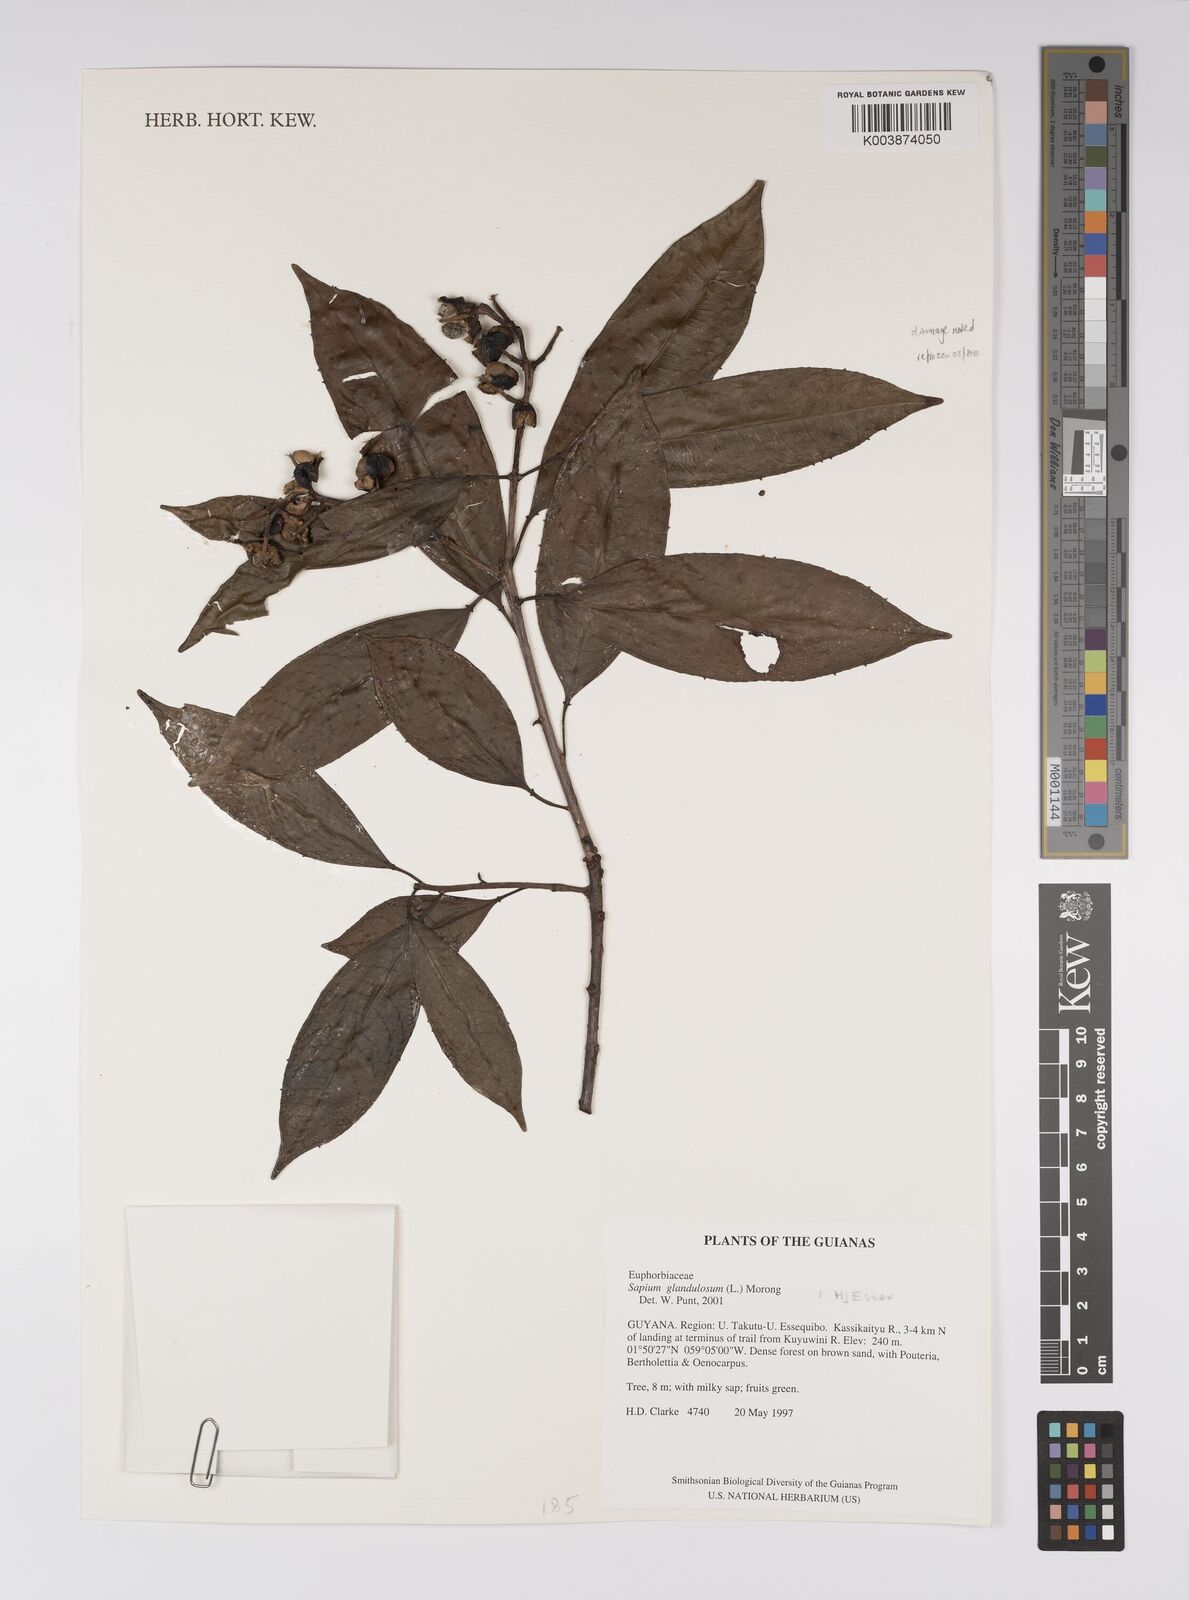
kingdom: Plantae
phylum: Tracheophyta
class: Magnoliopsida
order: Malpighiales
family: Euphorbiaceae
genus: Sapium
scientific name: Sapium glandulosum
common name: Milktree
